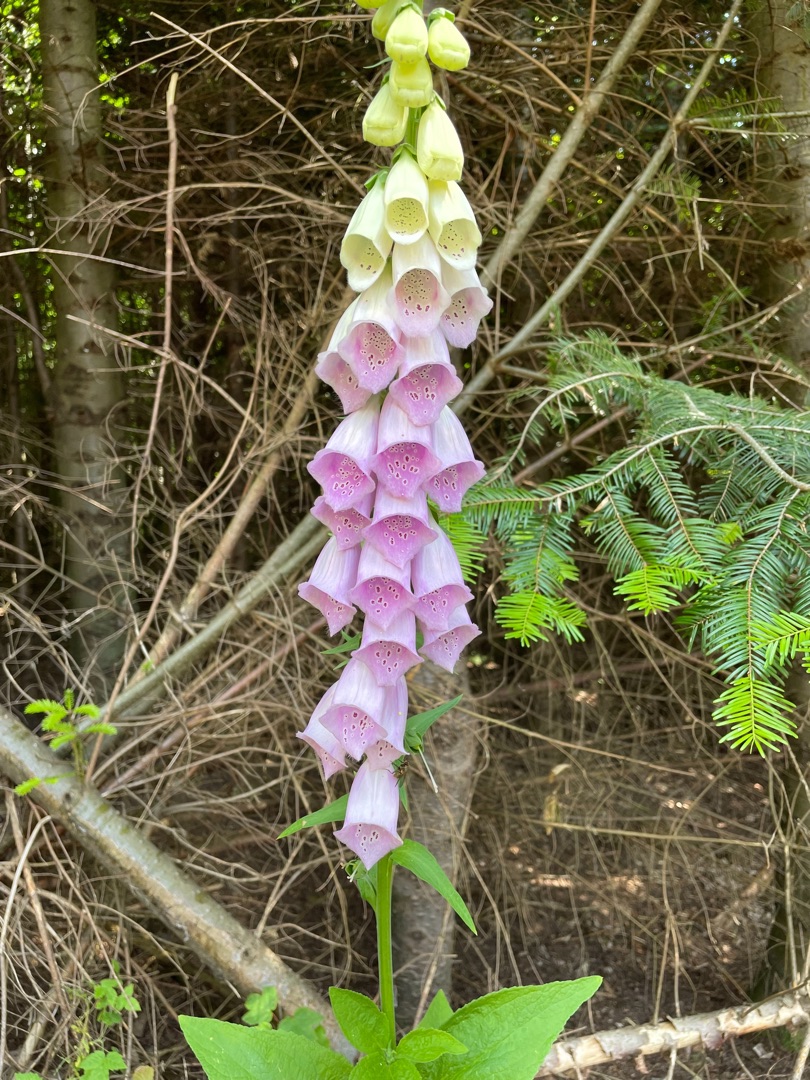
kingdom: Plantae
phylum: Tracheophyta
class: Magnoliopsida
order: Lamiales
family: Plantaginaceae
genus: Digitalis
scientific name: Digitalis purpurea
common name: Almindelig fingerbøl
